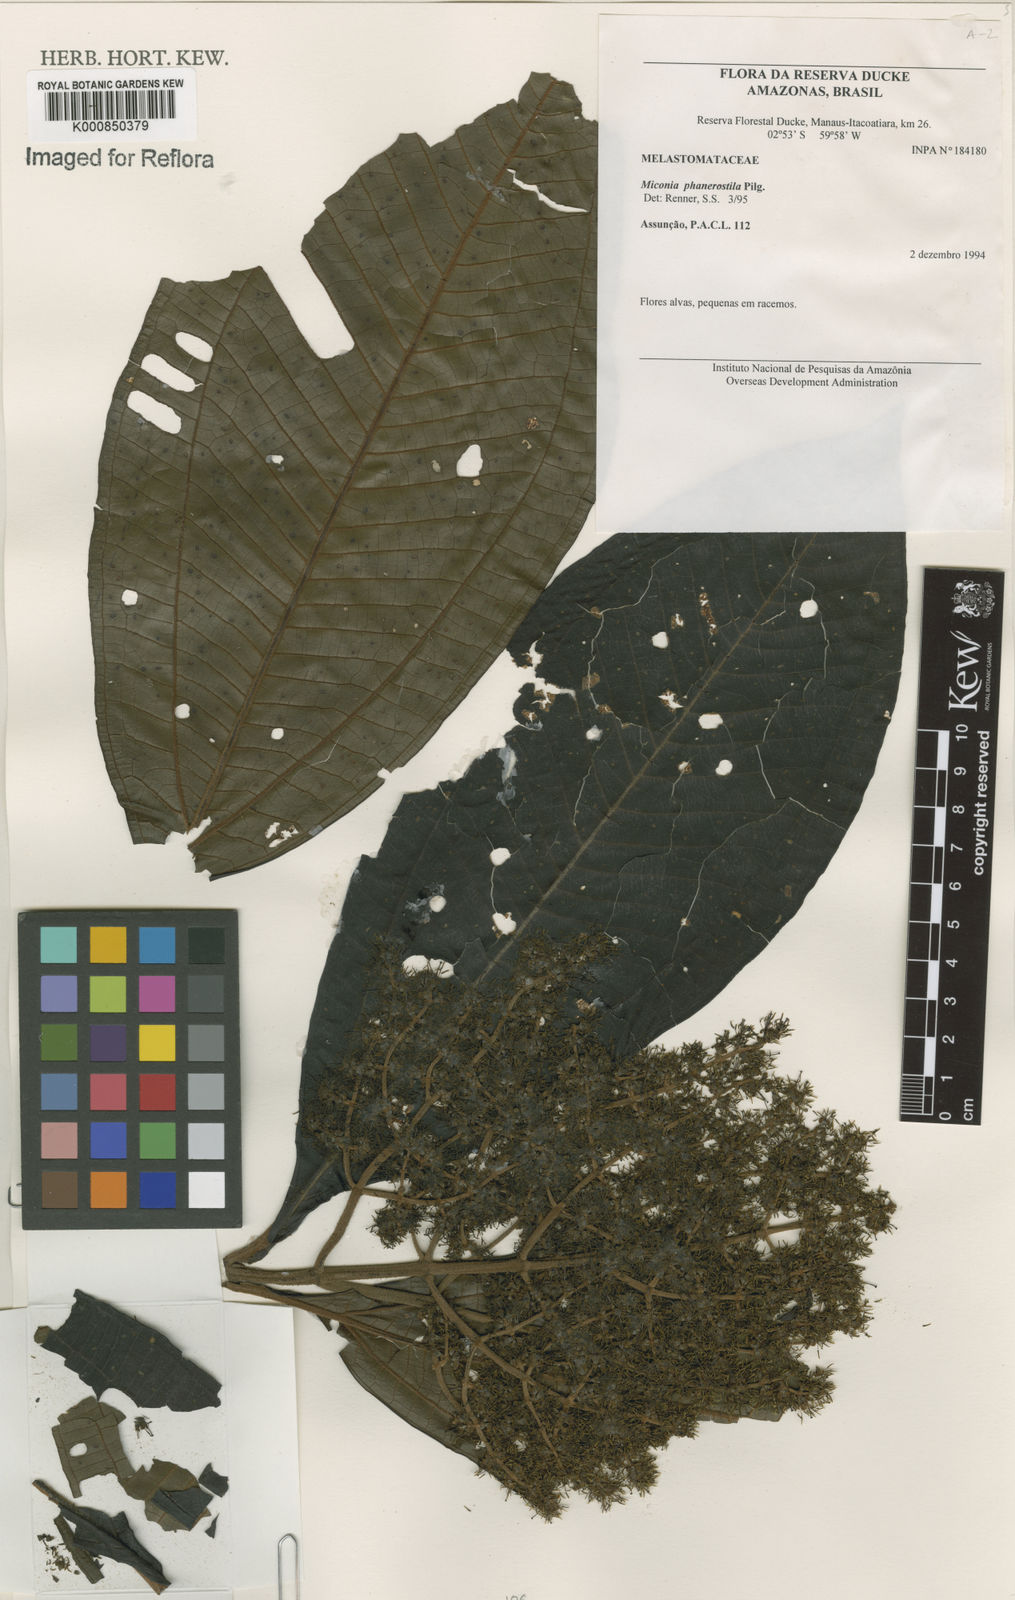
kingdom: Plantae
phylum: Tracheophyta
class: Magnoliopsida
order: Myrtales
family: Melastomataceae
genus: Miconia
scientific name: Miconia phanerostila
